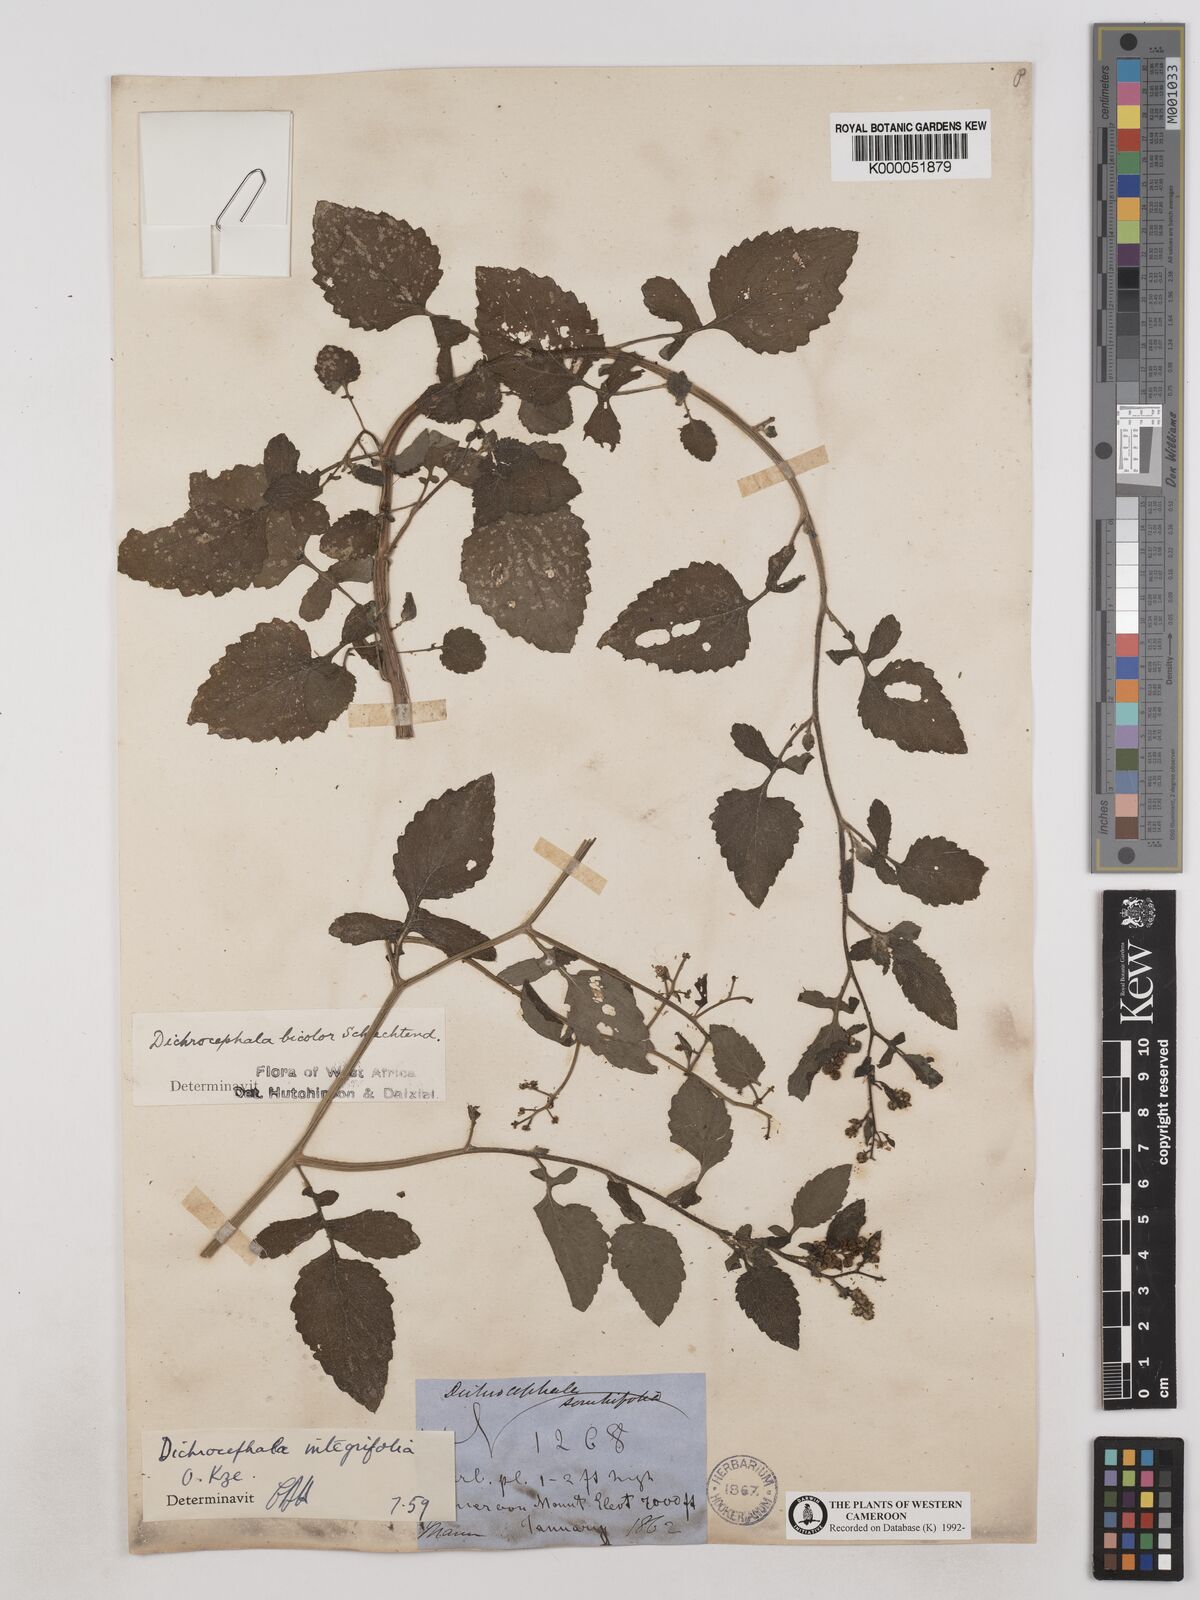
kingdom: Plantae
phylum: Tracheophyta
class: Magnoliopsida
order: Asterales
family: Asteraceae
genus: Dichrocephala
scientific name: Dichrocephala integrifolia
